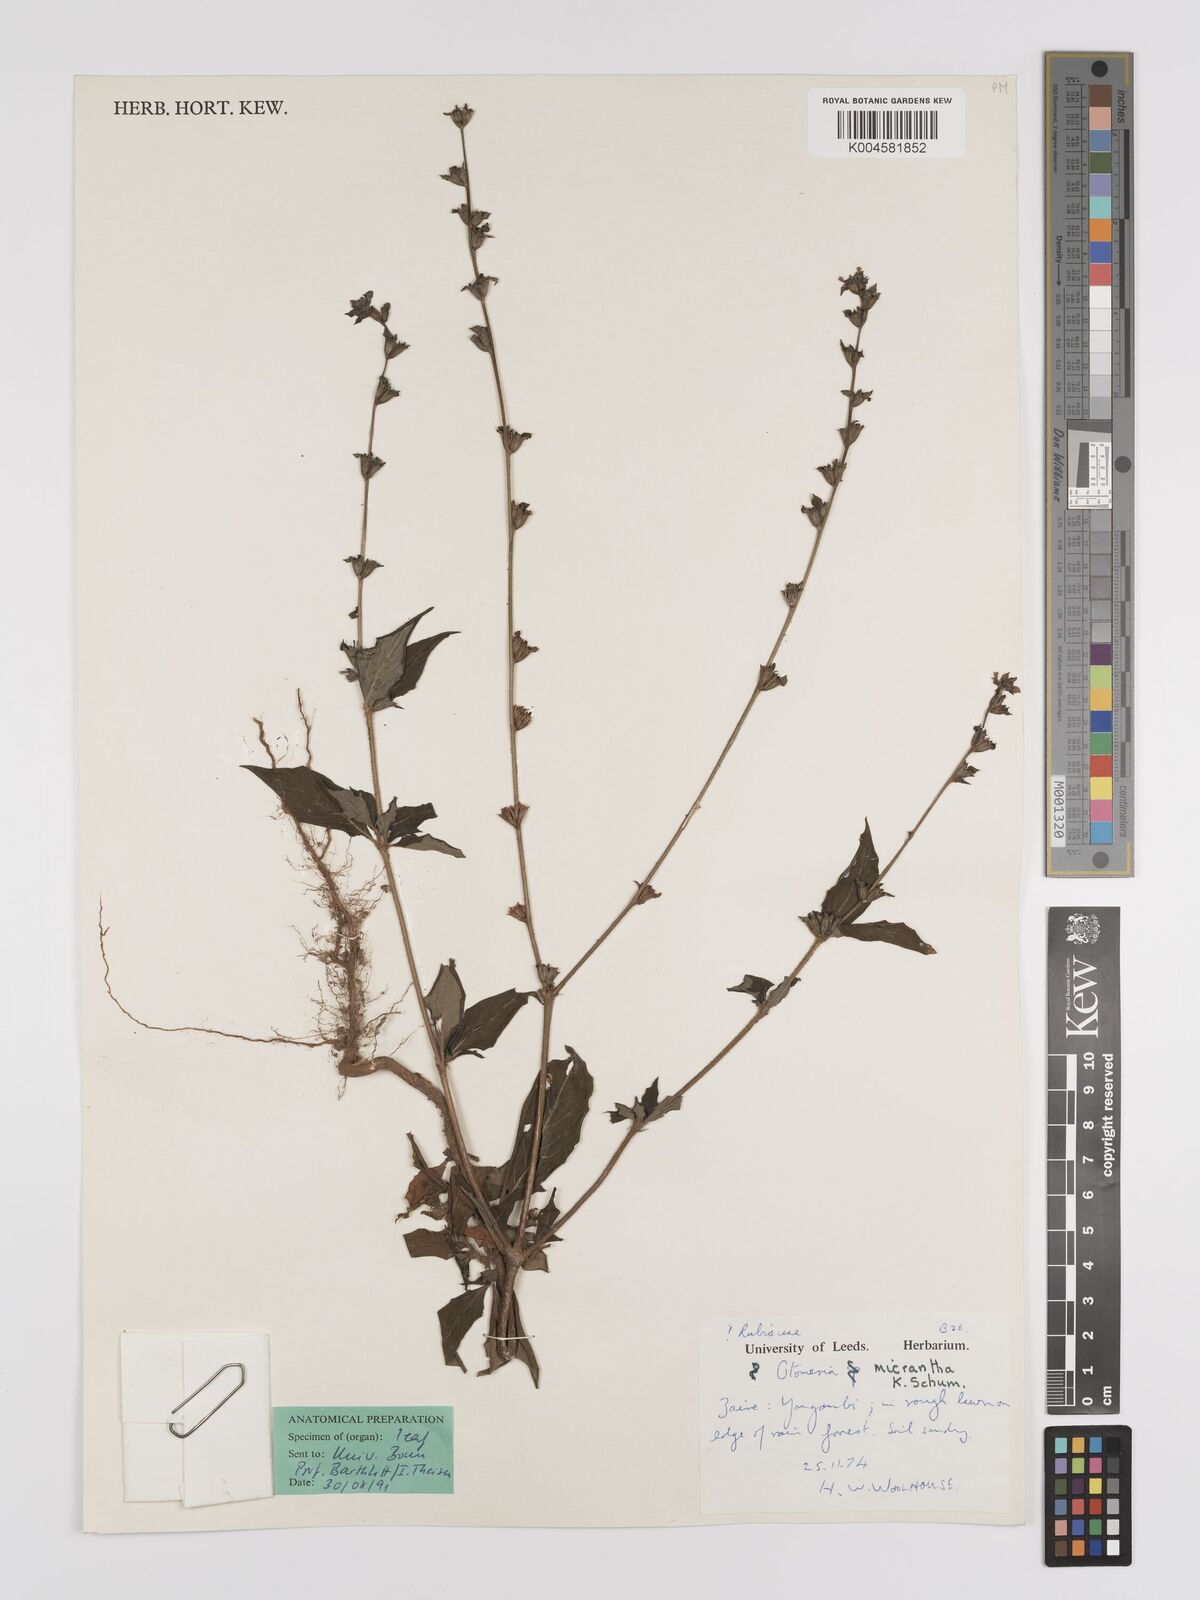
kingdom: Plantae
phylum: Tracheophyta
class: Magnoliopsida
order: Gentianales
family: Rubiaceae
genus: Otomeria
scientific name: Otomeria micrantha
